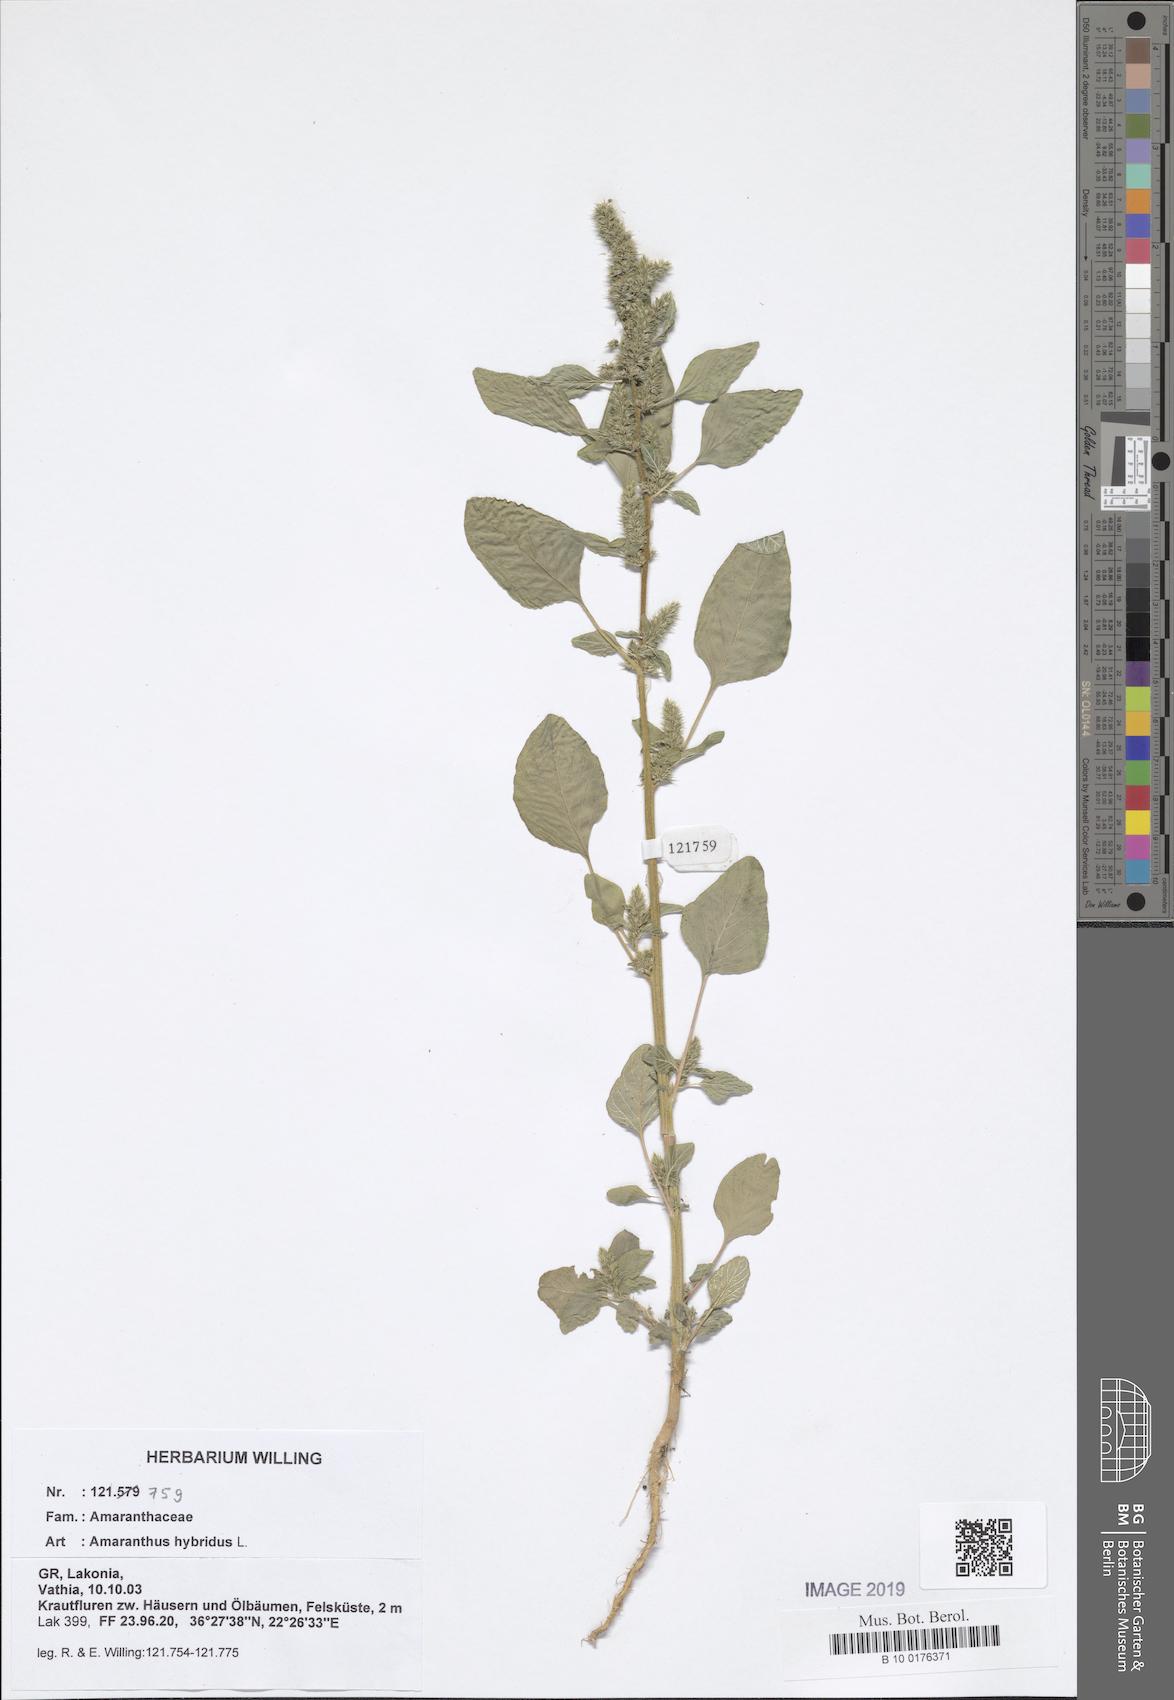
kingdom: Plantae
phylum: Tracheophyta
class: Magnoliopsida
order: Caryophyllales
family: Amaranthaceae
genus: Amaranthus
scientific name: Amaranthus hybridus
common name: Green amaranth
